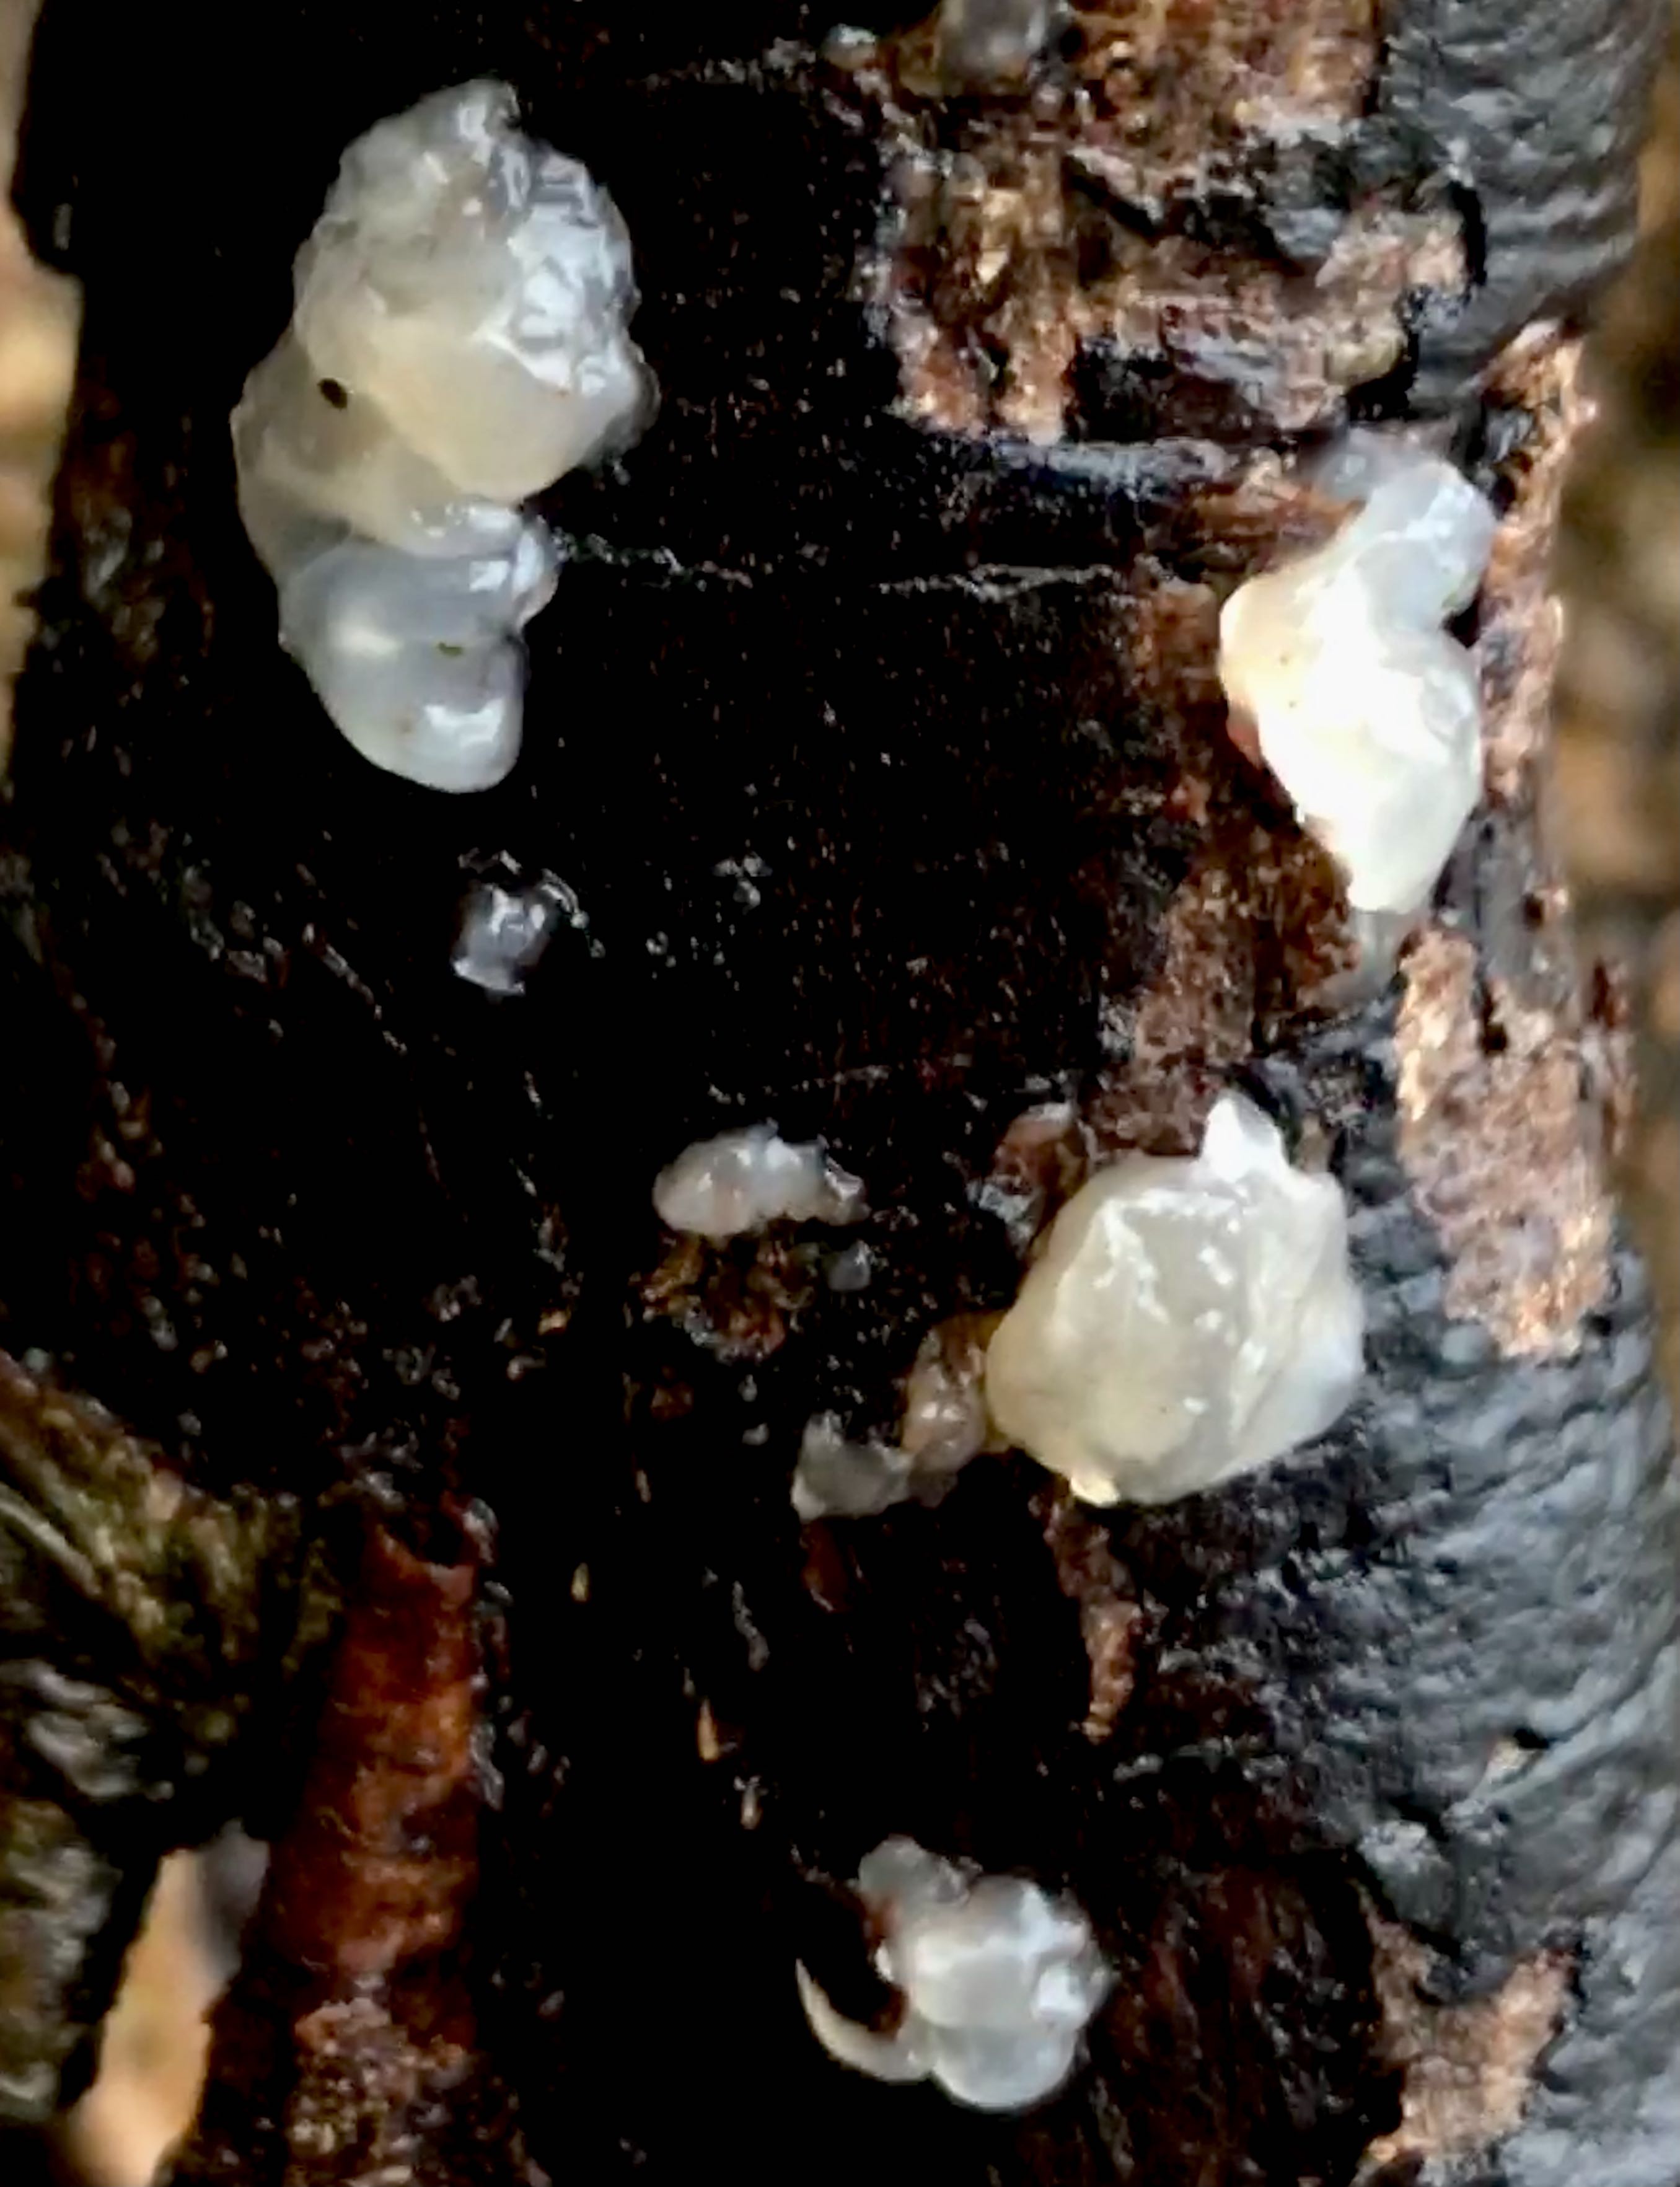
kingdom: Fungi
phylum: Basidiomycota
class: Agaricomycetes
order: Auriculariales
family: Hyaloriaceae
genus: Myxarium
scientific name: Myxarium nucleatum
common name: klar bævretop
